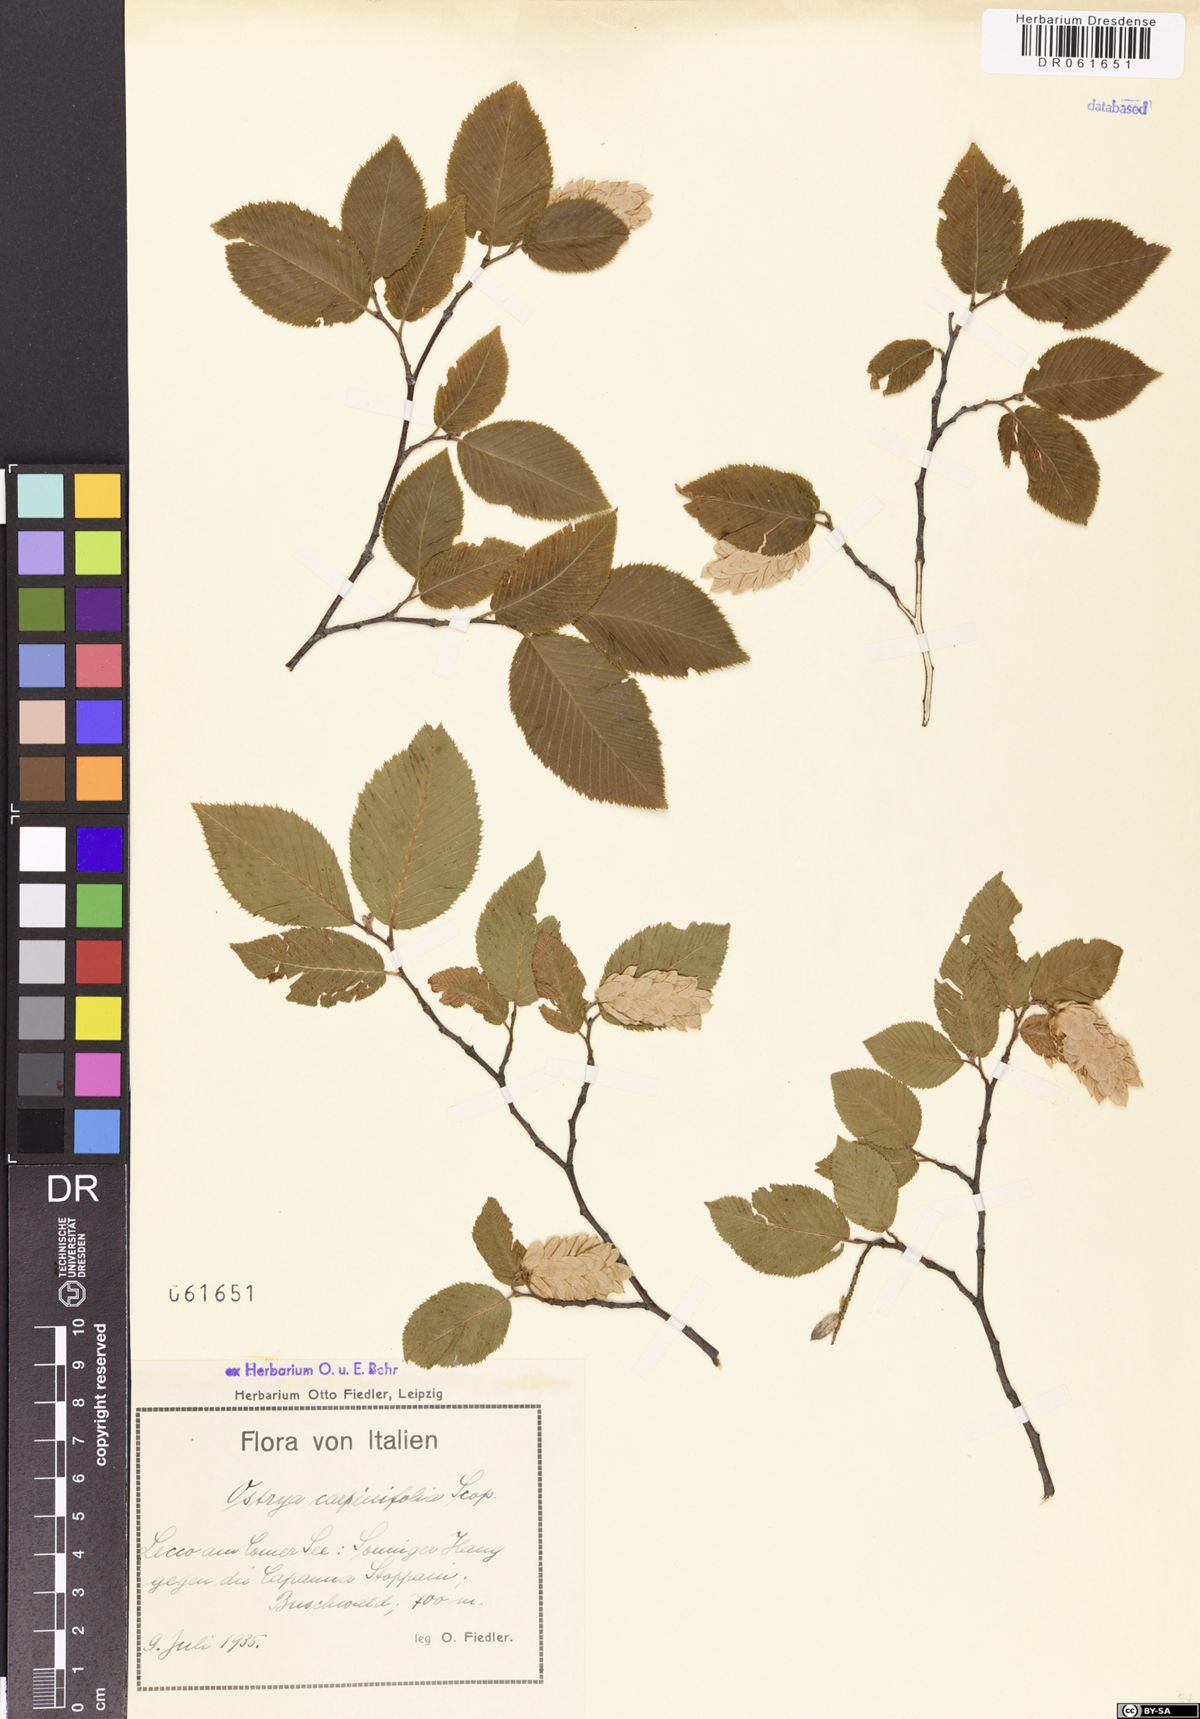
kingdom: Plantae
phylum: Tracheophyta
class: Magnoliopsida
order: Fagales
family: Betulaceae
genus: Ostrya
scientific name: Ostrya carpinifolia
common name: European hop-hornbeam
